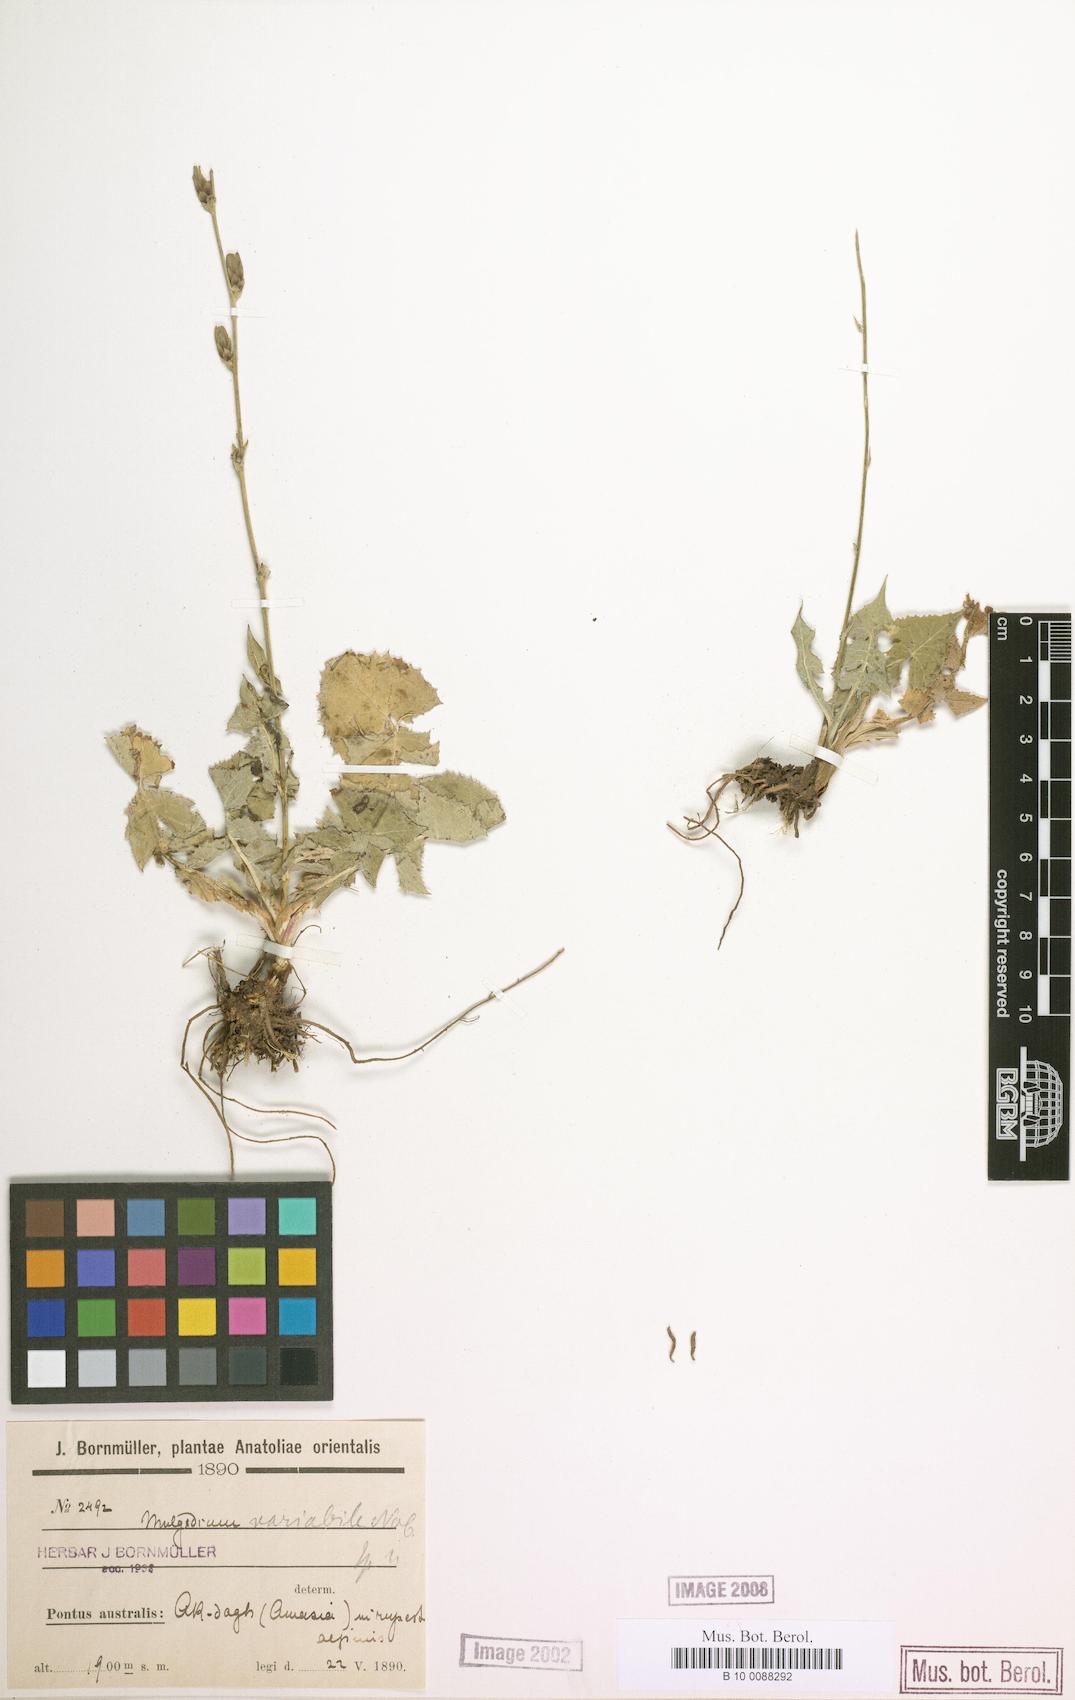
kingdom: Plantae
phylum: Tracheophyta
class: Magnoliopsida
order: Asterales
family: Asteraceae
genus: Lactuca
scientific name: Lactuca variabilis
